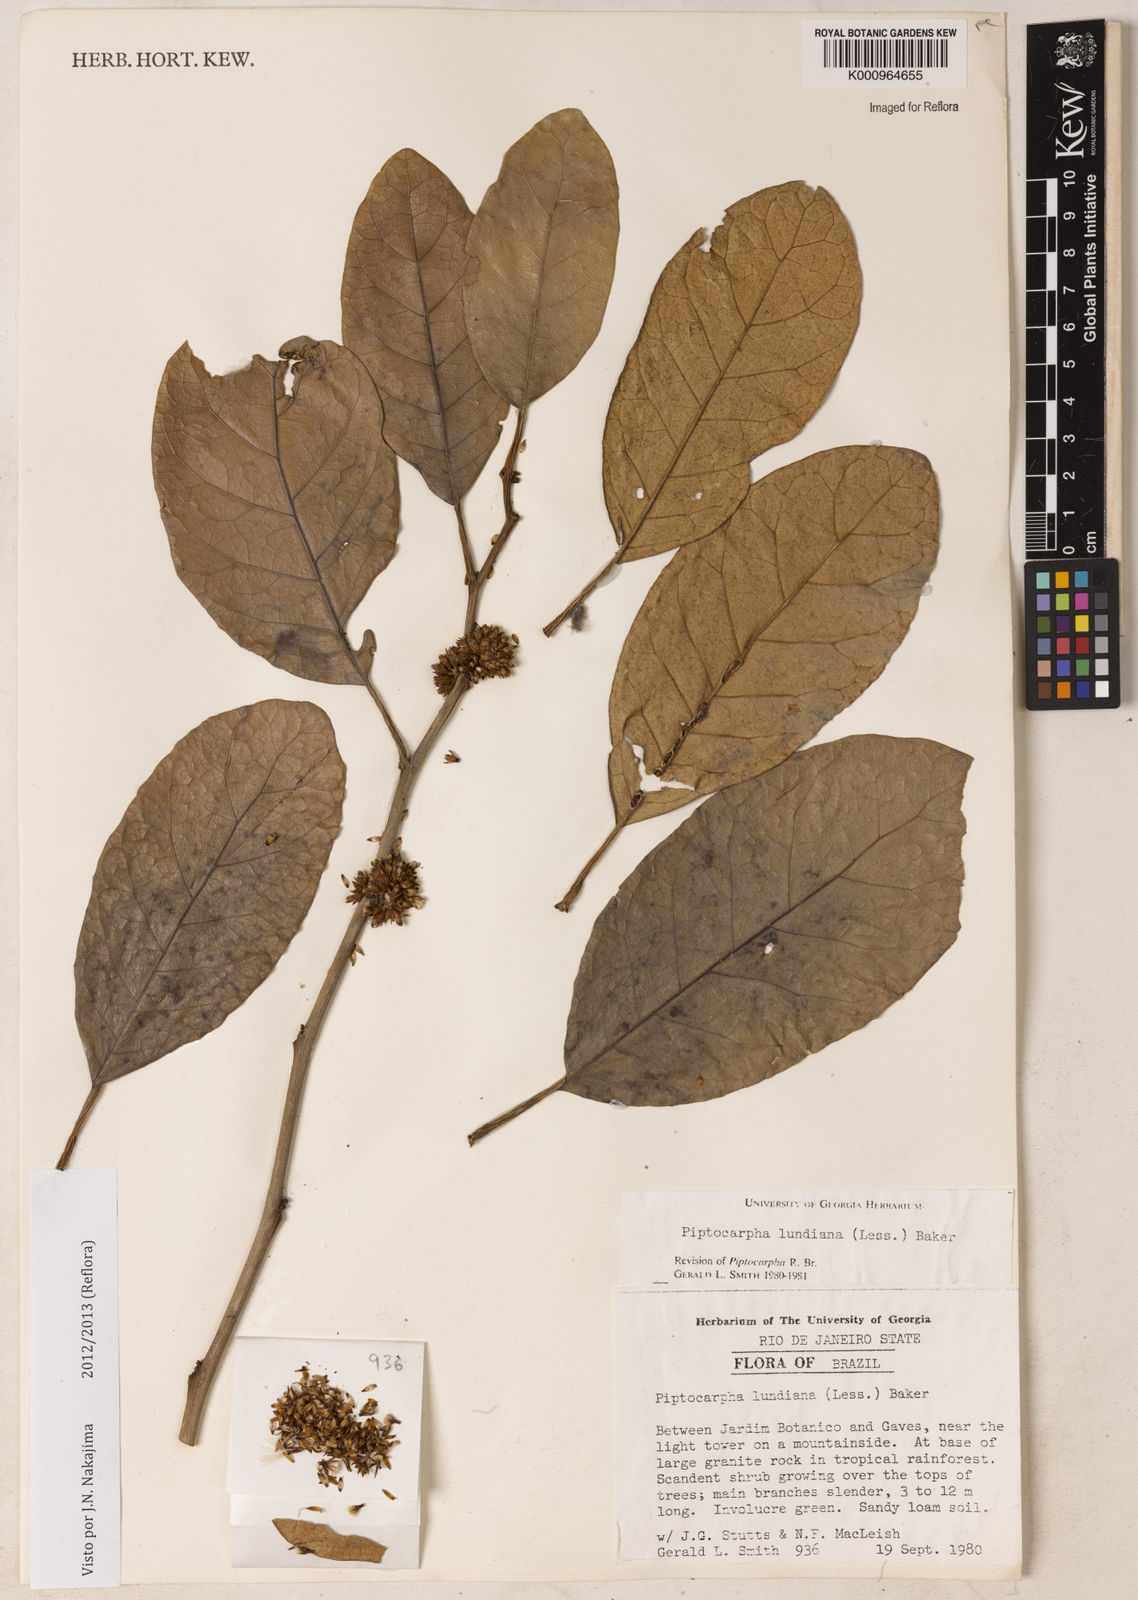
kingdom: Plantae
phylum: Tracheophyta
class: Magnoliopsida
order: Asterales
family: Asteraceae
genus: Piptocarpha
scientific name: Piptocarpha lundiana
